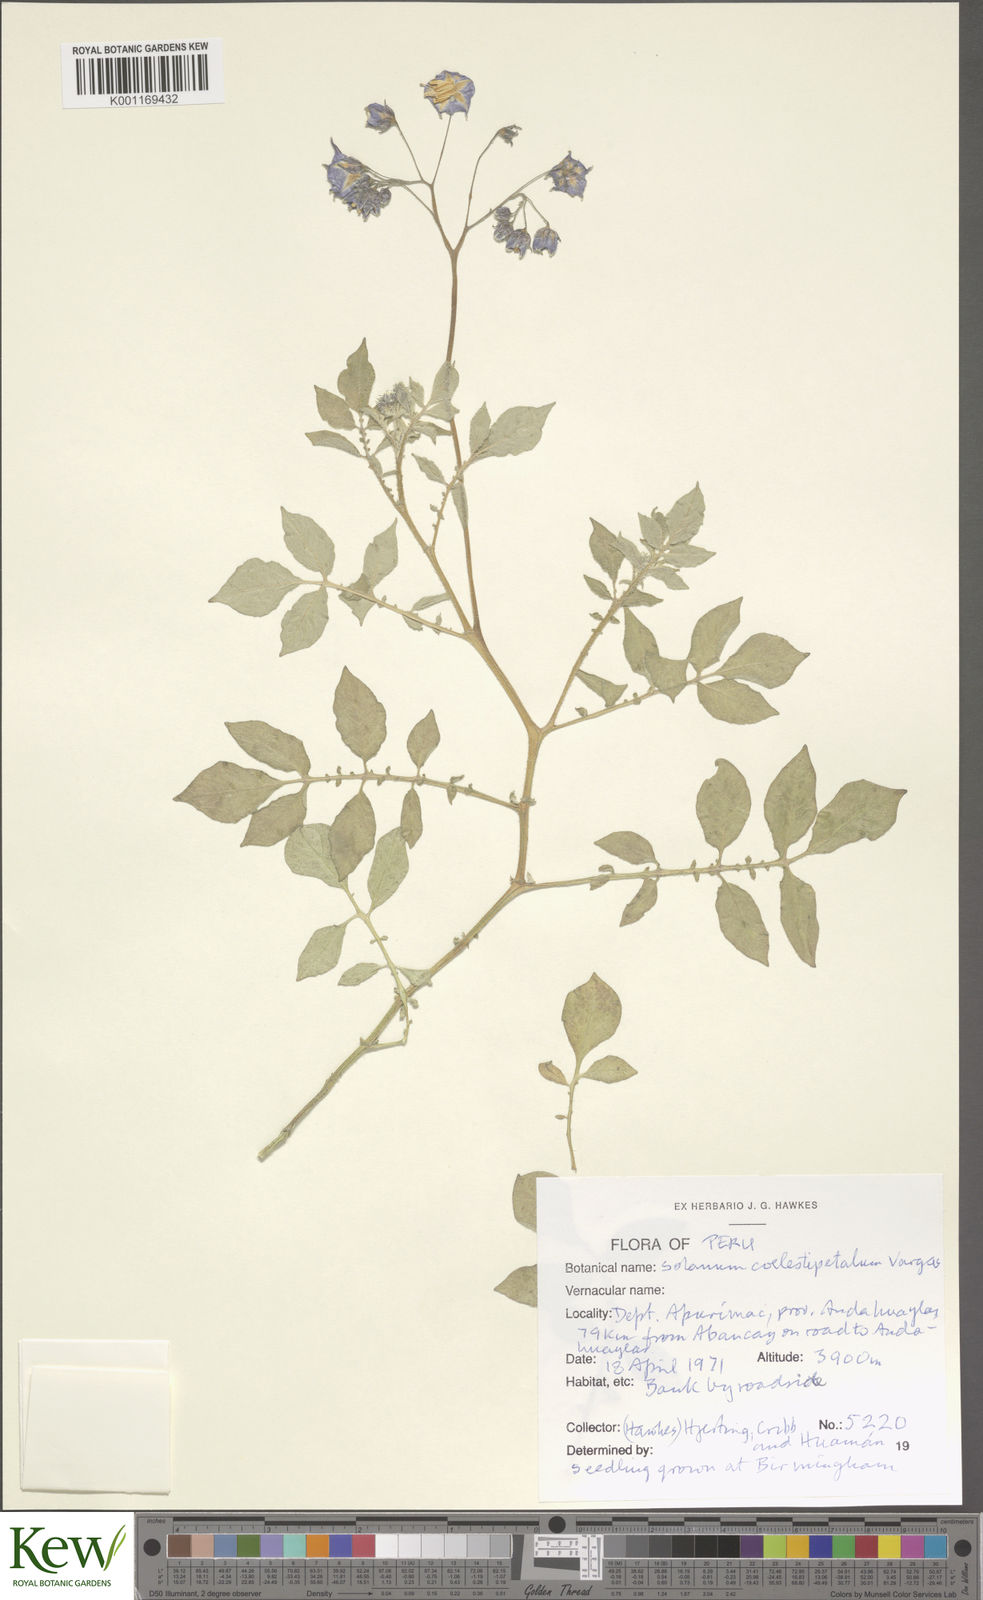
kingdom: Plantae
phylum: Tracheophyta
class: Magnoliopsida
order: Solanales
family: Solanaceae
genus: Solanum
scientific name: Solanum brevicaule
